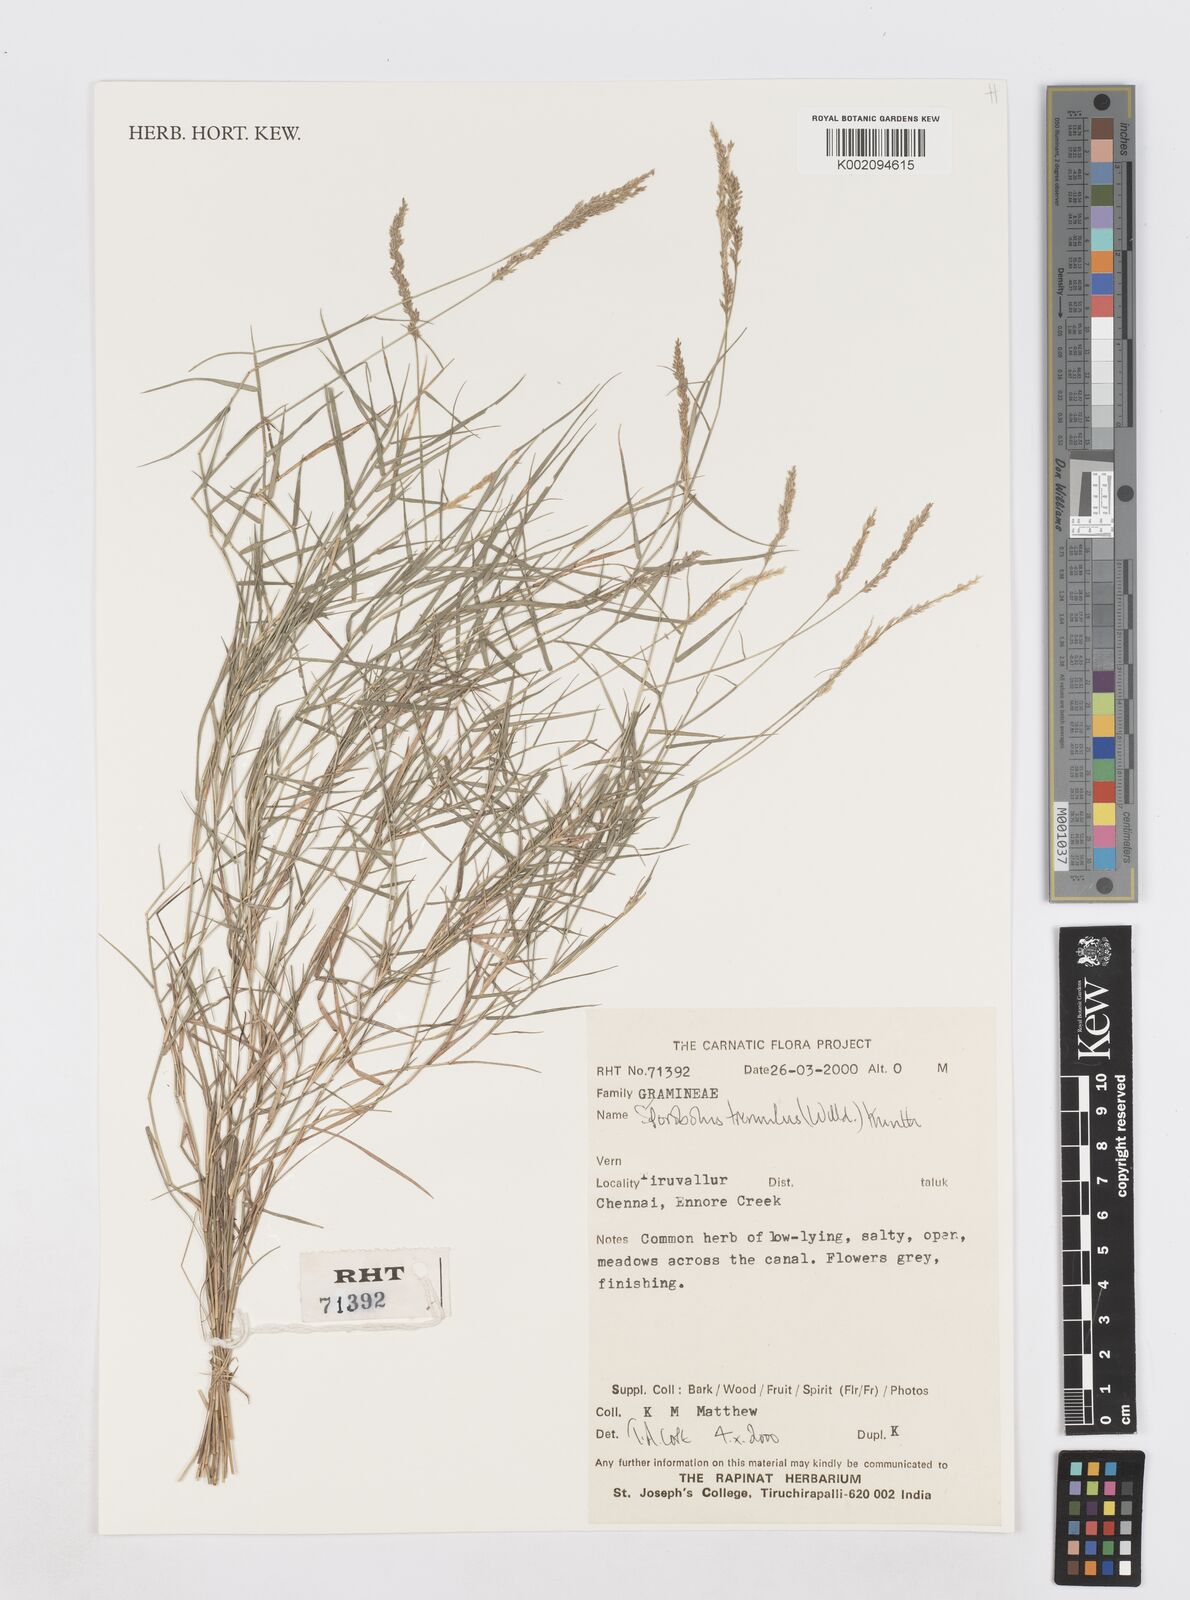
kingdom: Plantae
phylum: Tracheophyta
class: Liliopsida
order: Poales
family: Poaceae
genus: Sporobolus
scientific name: Sporobolus virginicus
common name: Beach dropseed
